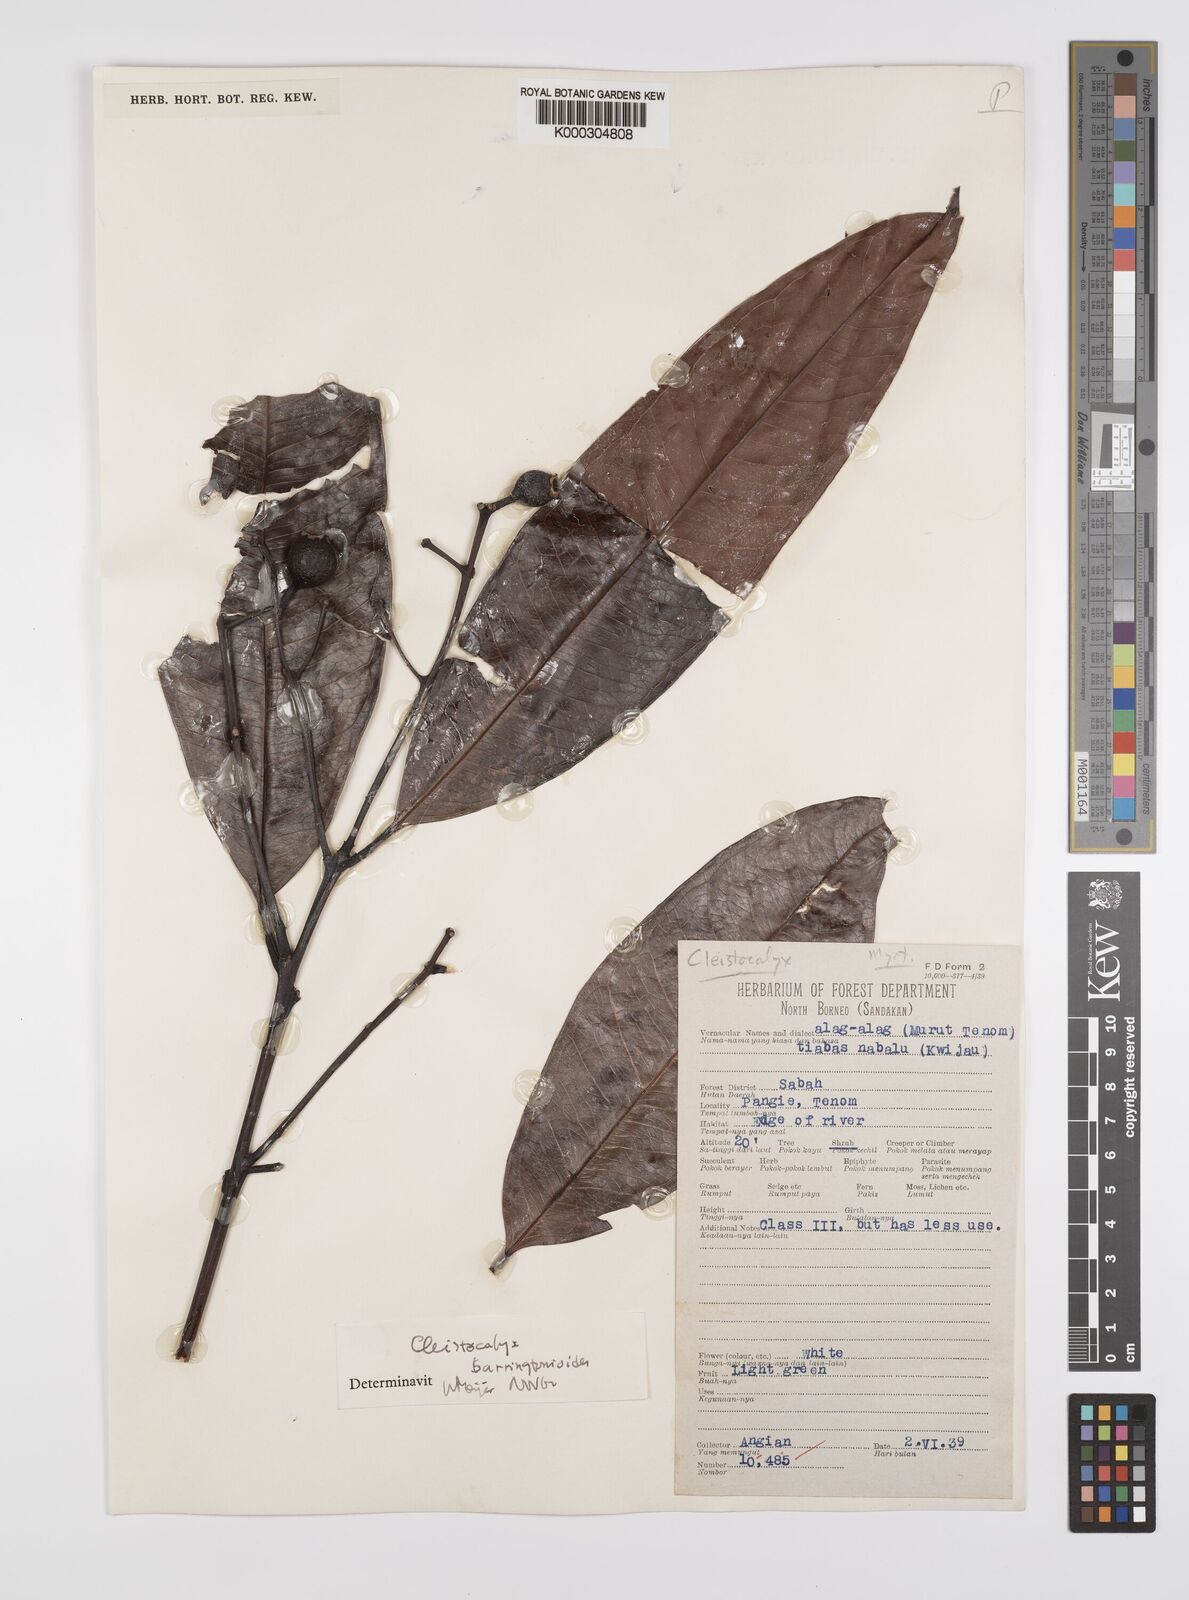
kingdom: Plantae
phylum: Tracheophyta
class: Magnoliopsida
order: Myrtales
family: Myrtaceae
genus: Syzygium
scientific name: Syzygium barringtonioides
